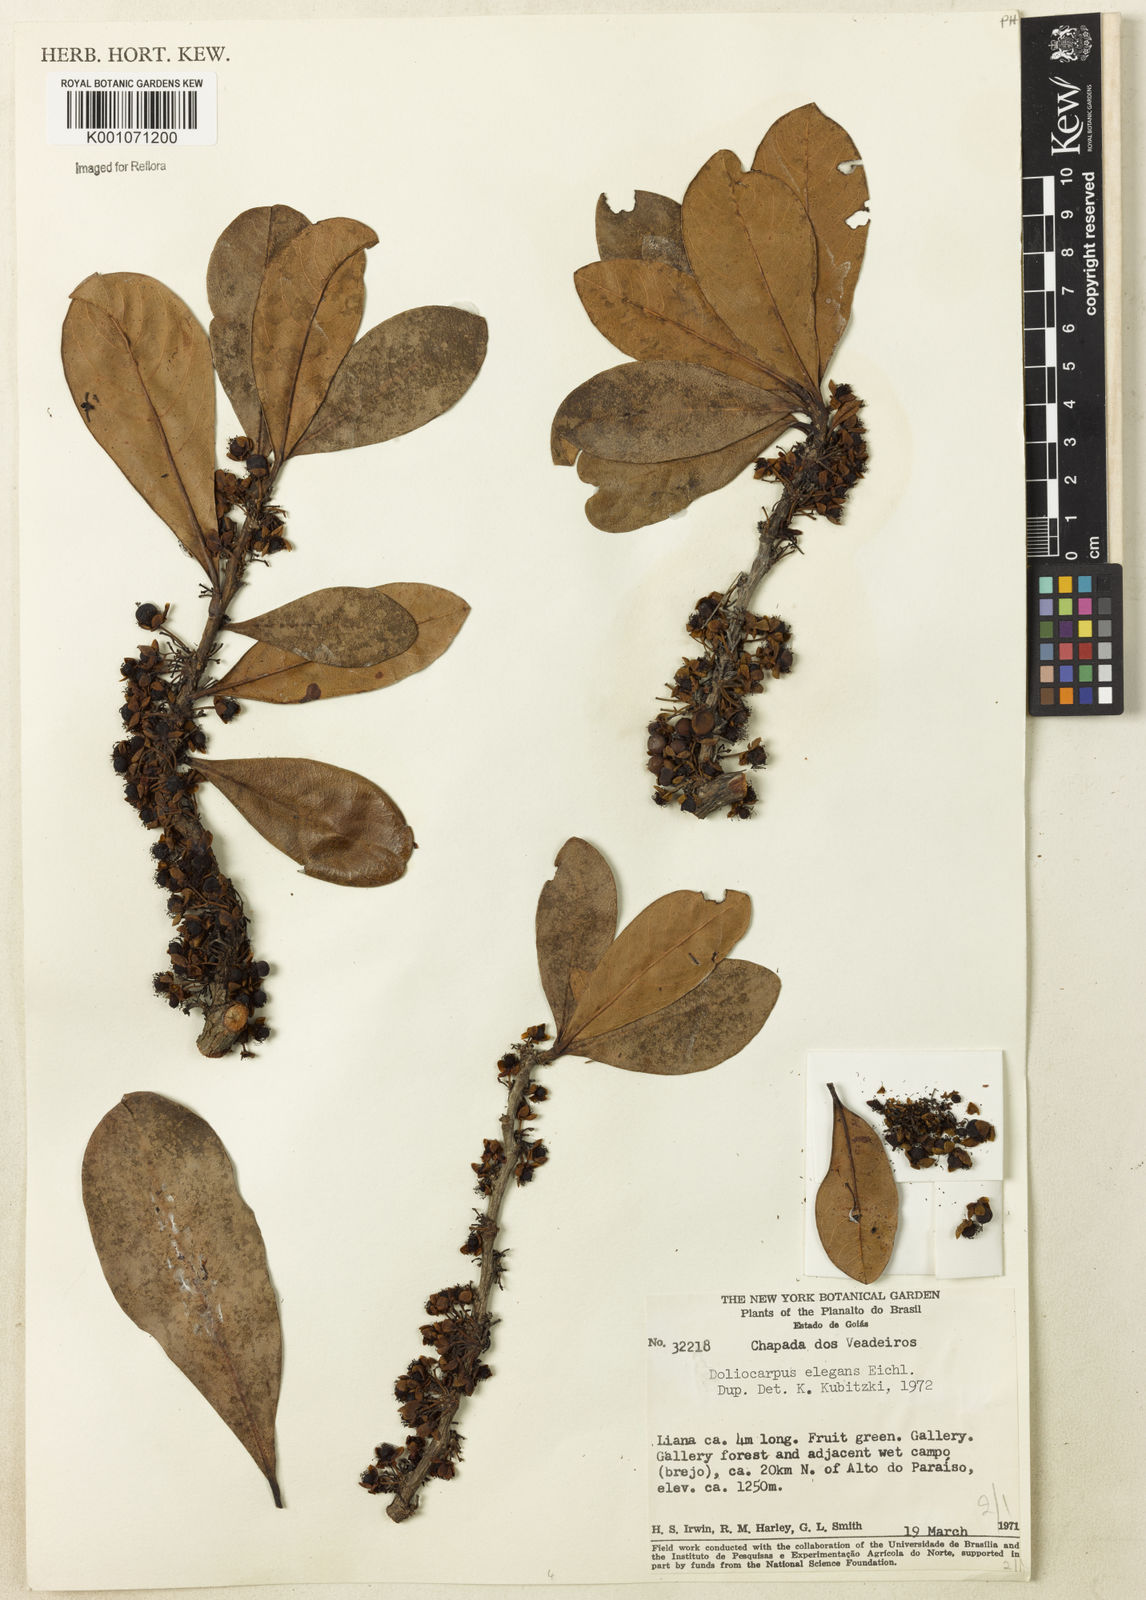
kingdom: Plantae
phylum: Tracheophyta
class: Magnoliopsida
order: Dilleniales
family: Dilleniaceae
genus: Doliocarpus
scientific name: Doliocarpus elegans
